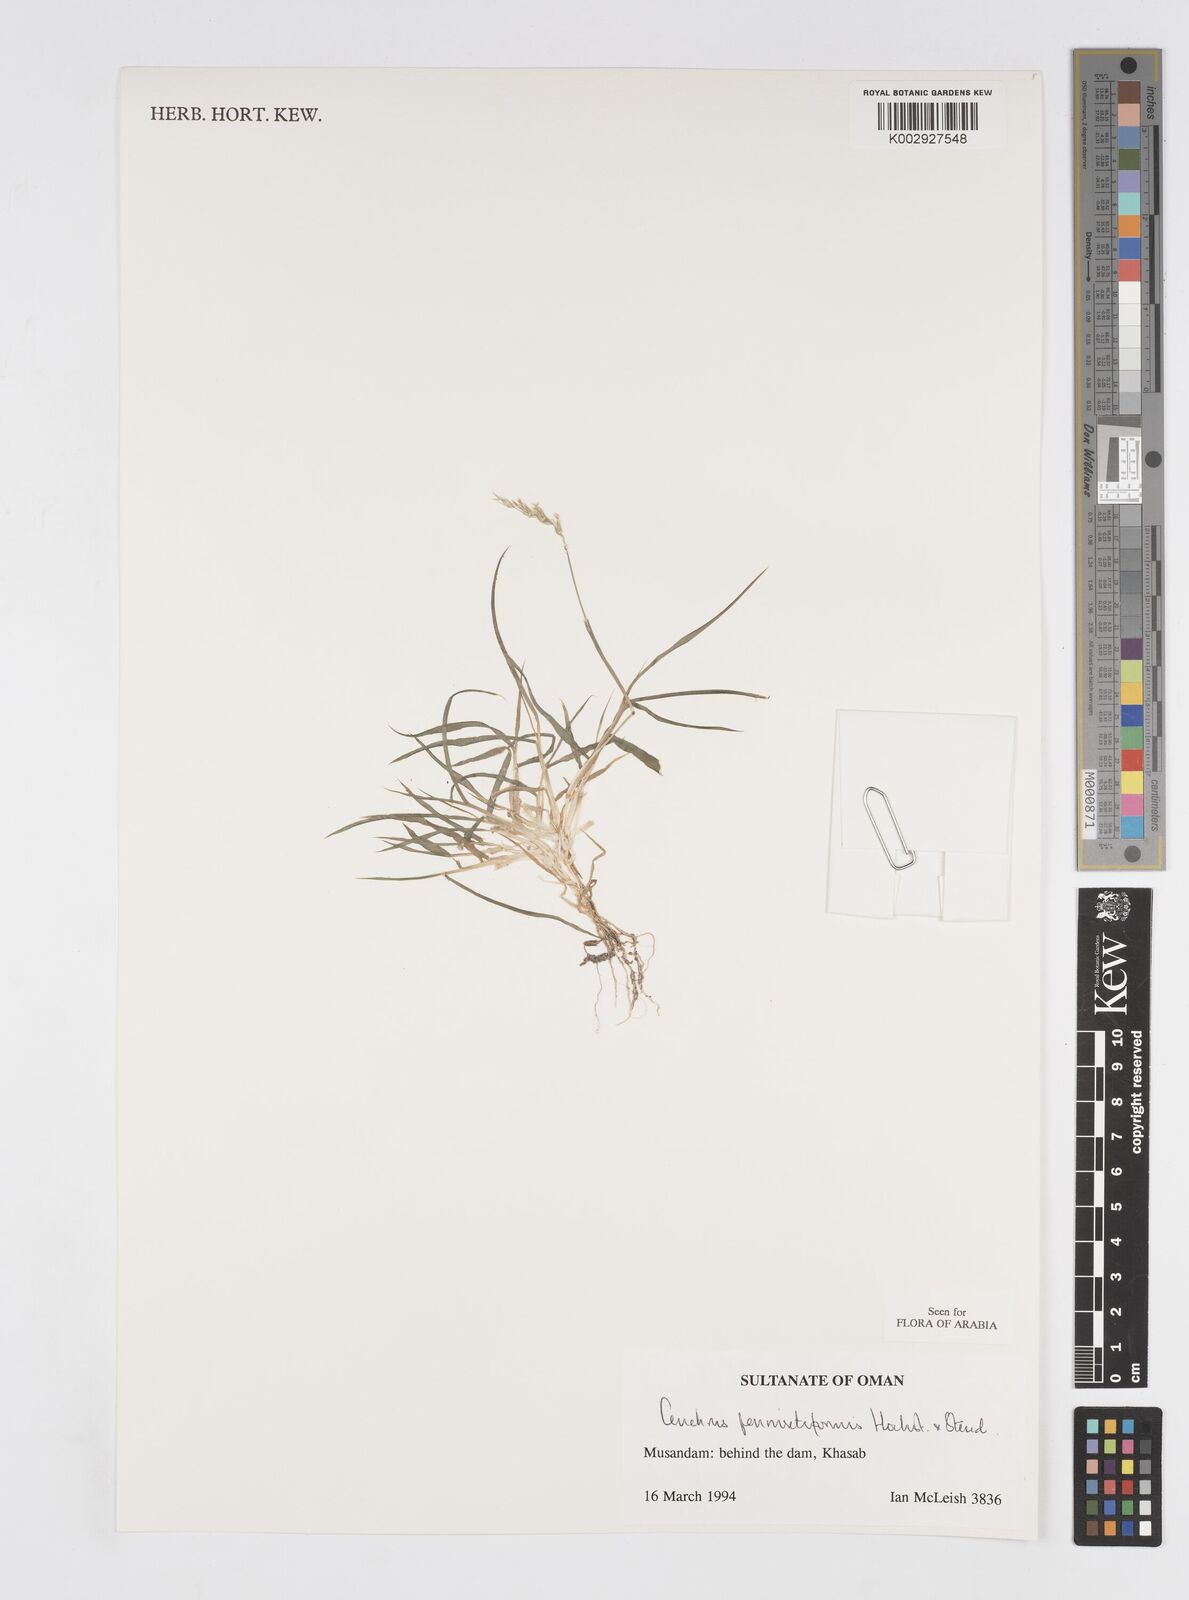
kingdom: Plantae
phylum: Tracheophyta
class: Liliopsida
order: Poales
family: Poaceae
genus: Cenchrus
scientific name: Cenchrus pennisetiformis
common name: Cloncurry
